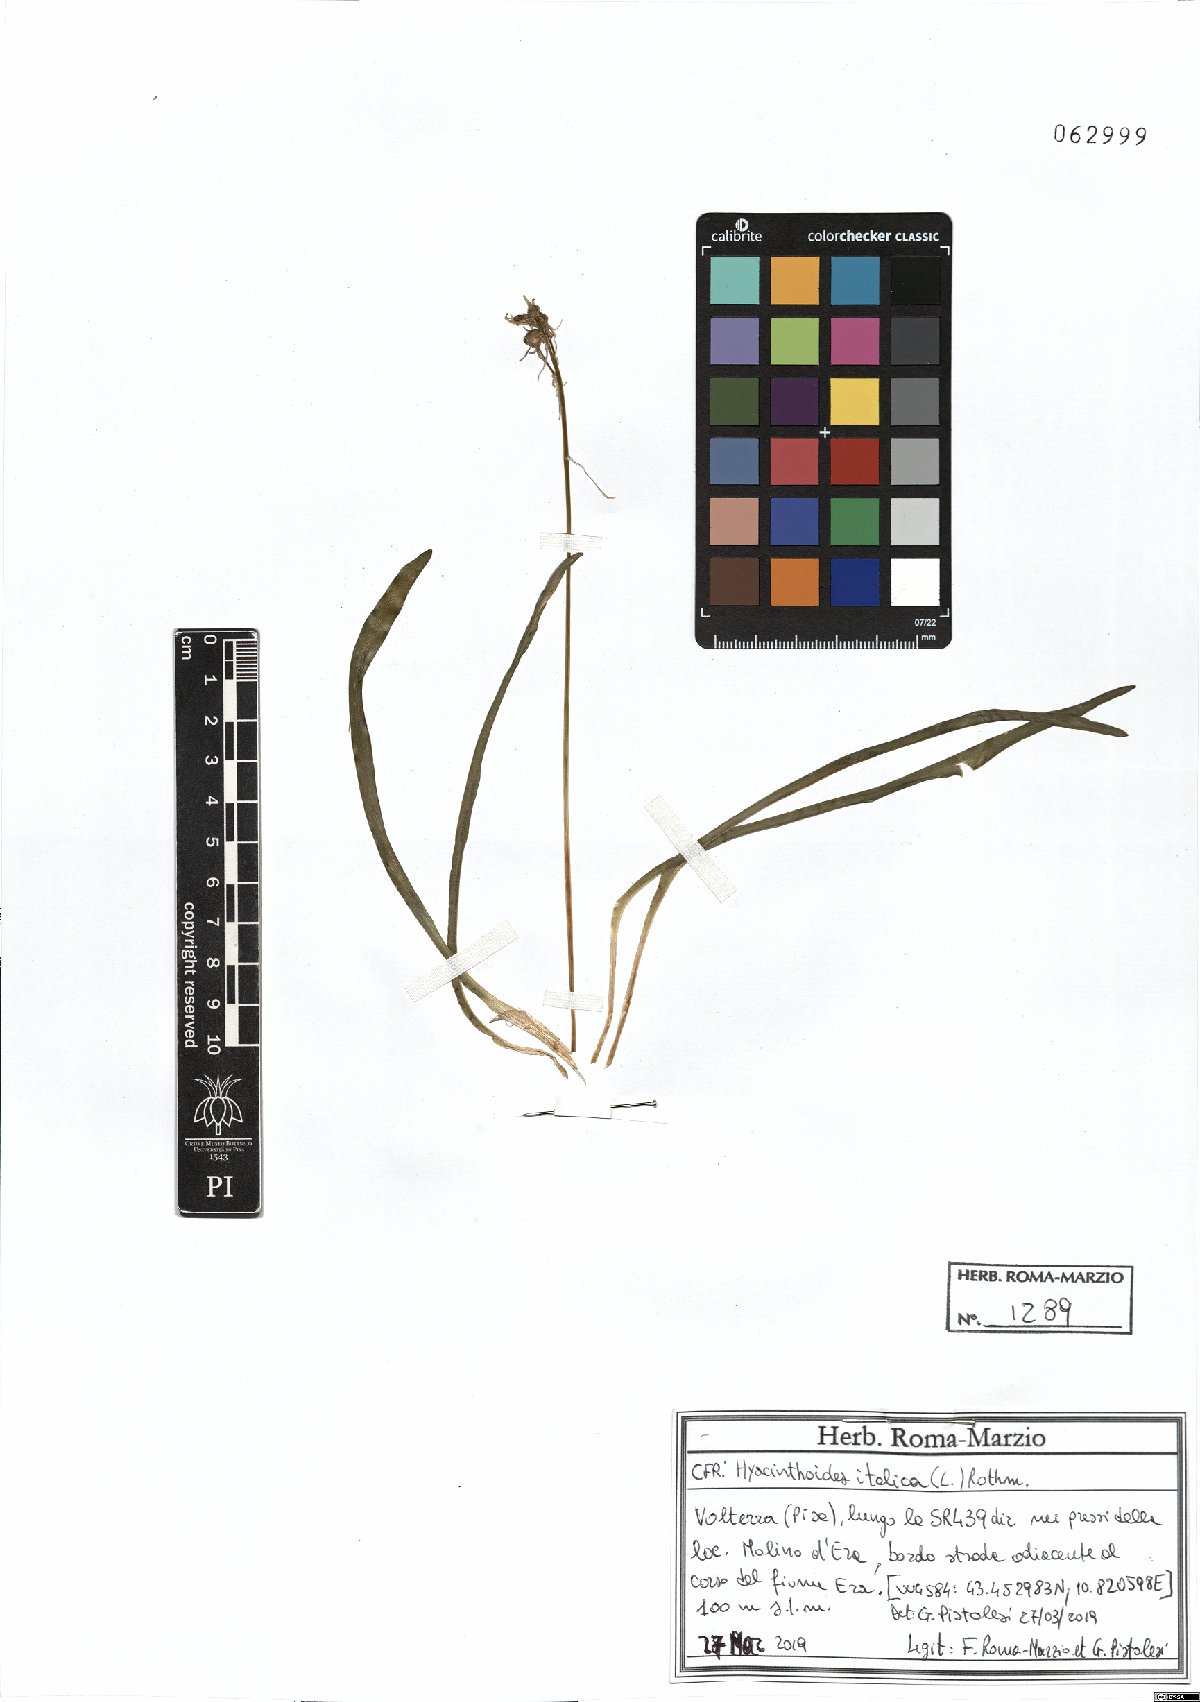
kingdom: Plantae
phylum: Tracheophyta
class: Liliopsida
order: Asparagales
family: Asparagaceae
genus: Hyacinthoides
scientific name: Hyacinthoides italica
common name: Italian bluebell
